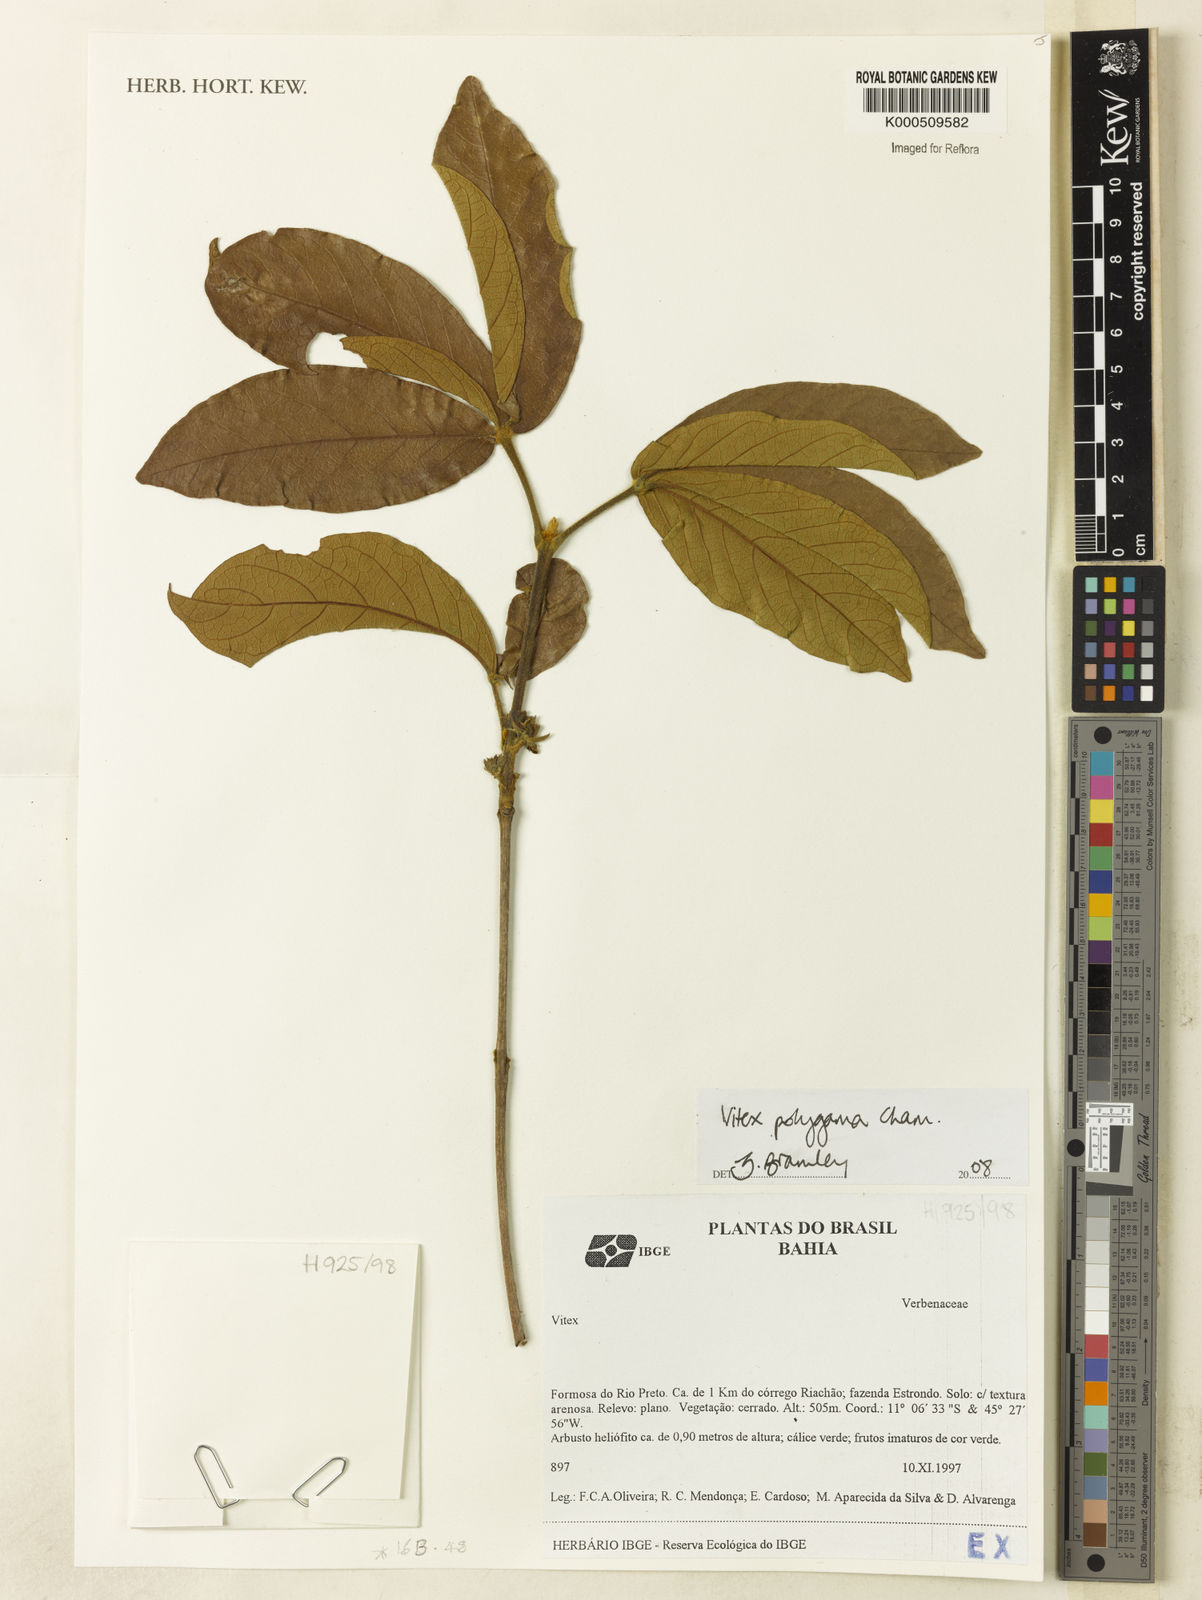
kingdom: Plantae
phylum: Tracheophyta
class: Magnoliopsida
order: Lamiales
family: Lamiaceae
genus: Vitex
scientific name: Vitex polygama
